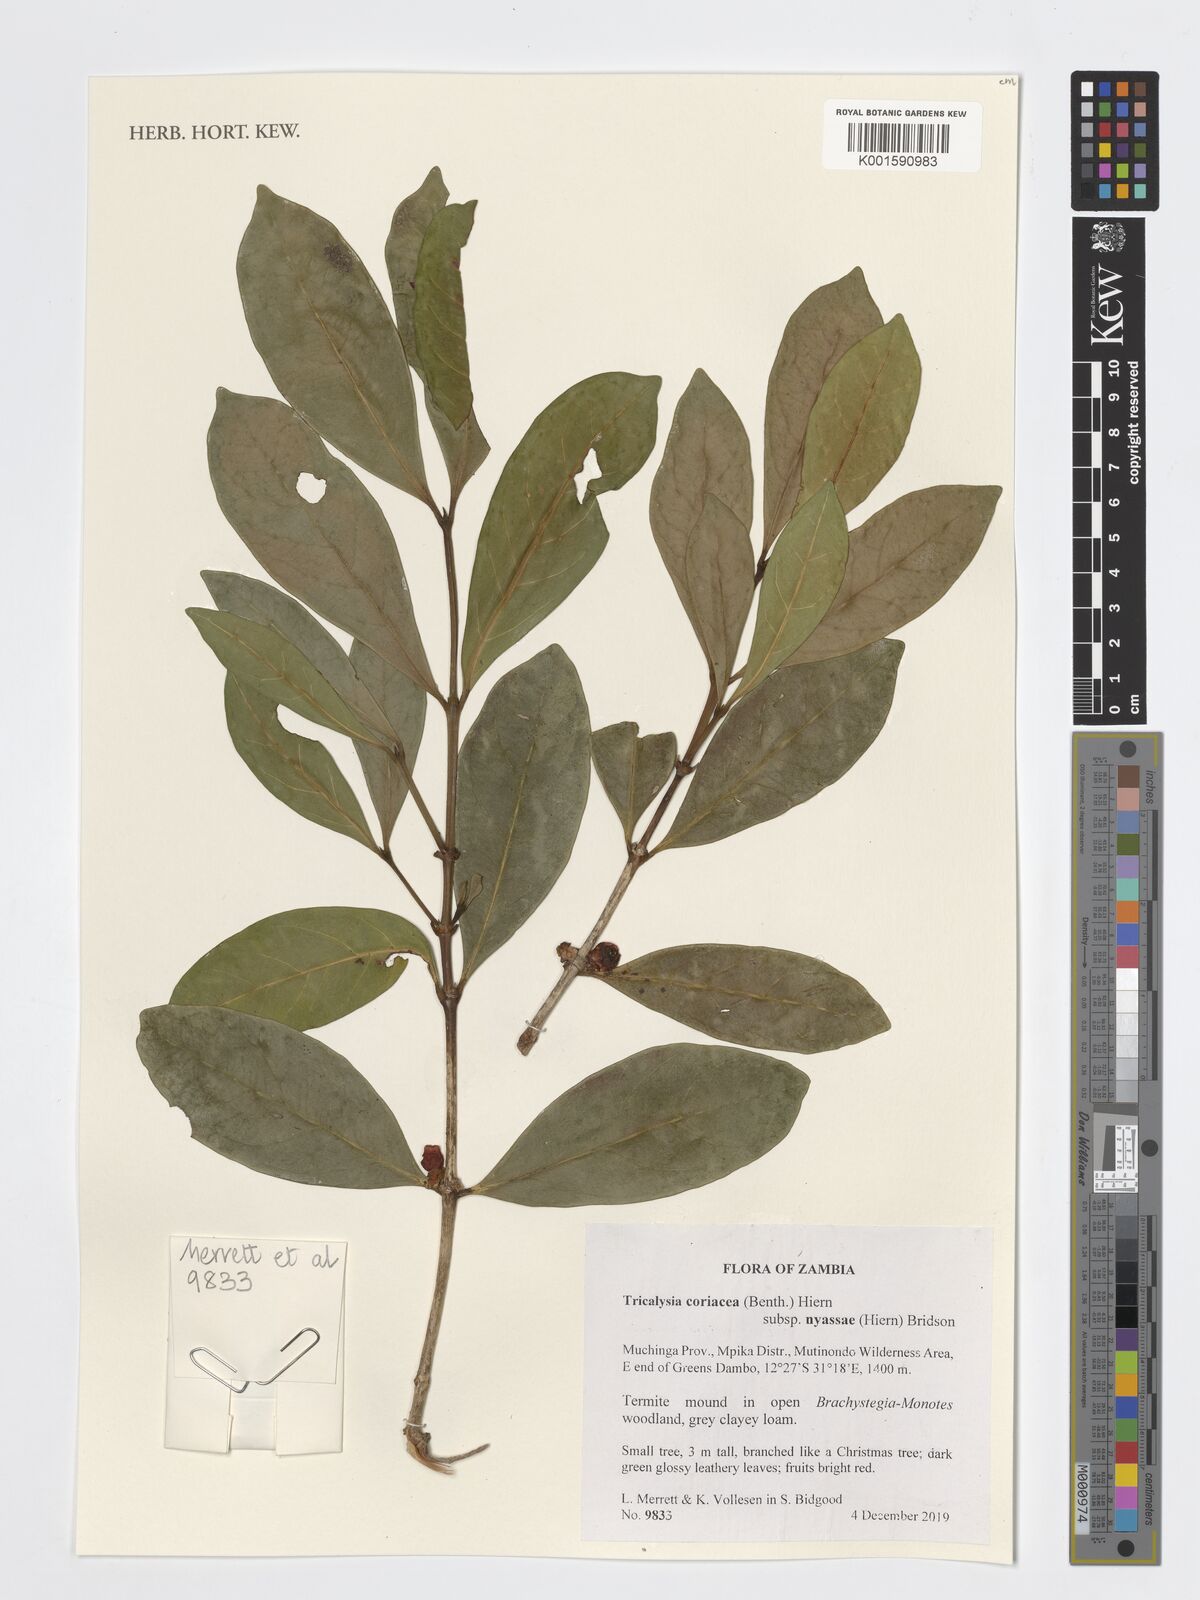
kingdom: Plantae
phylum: Tracheophyta
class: Magnoliopsida
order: Gentianales
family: Rubiaceae
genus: Tricalysia
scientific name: Tricalysia coriacea
